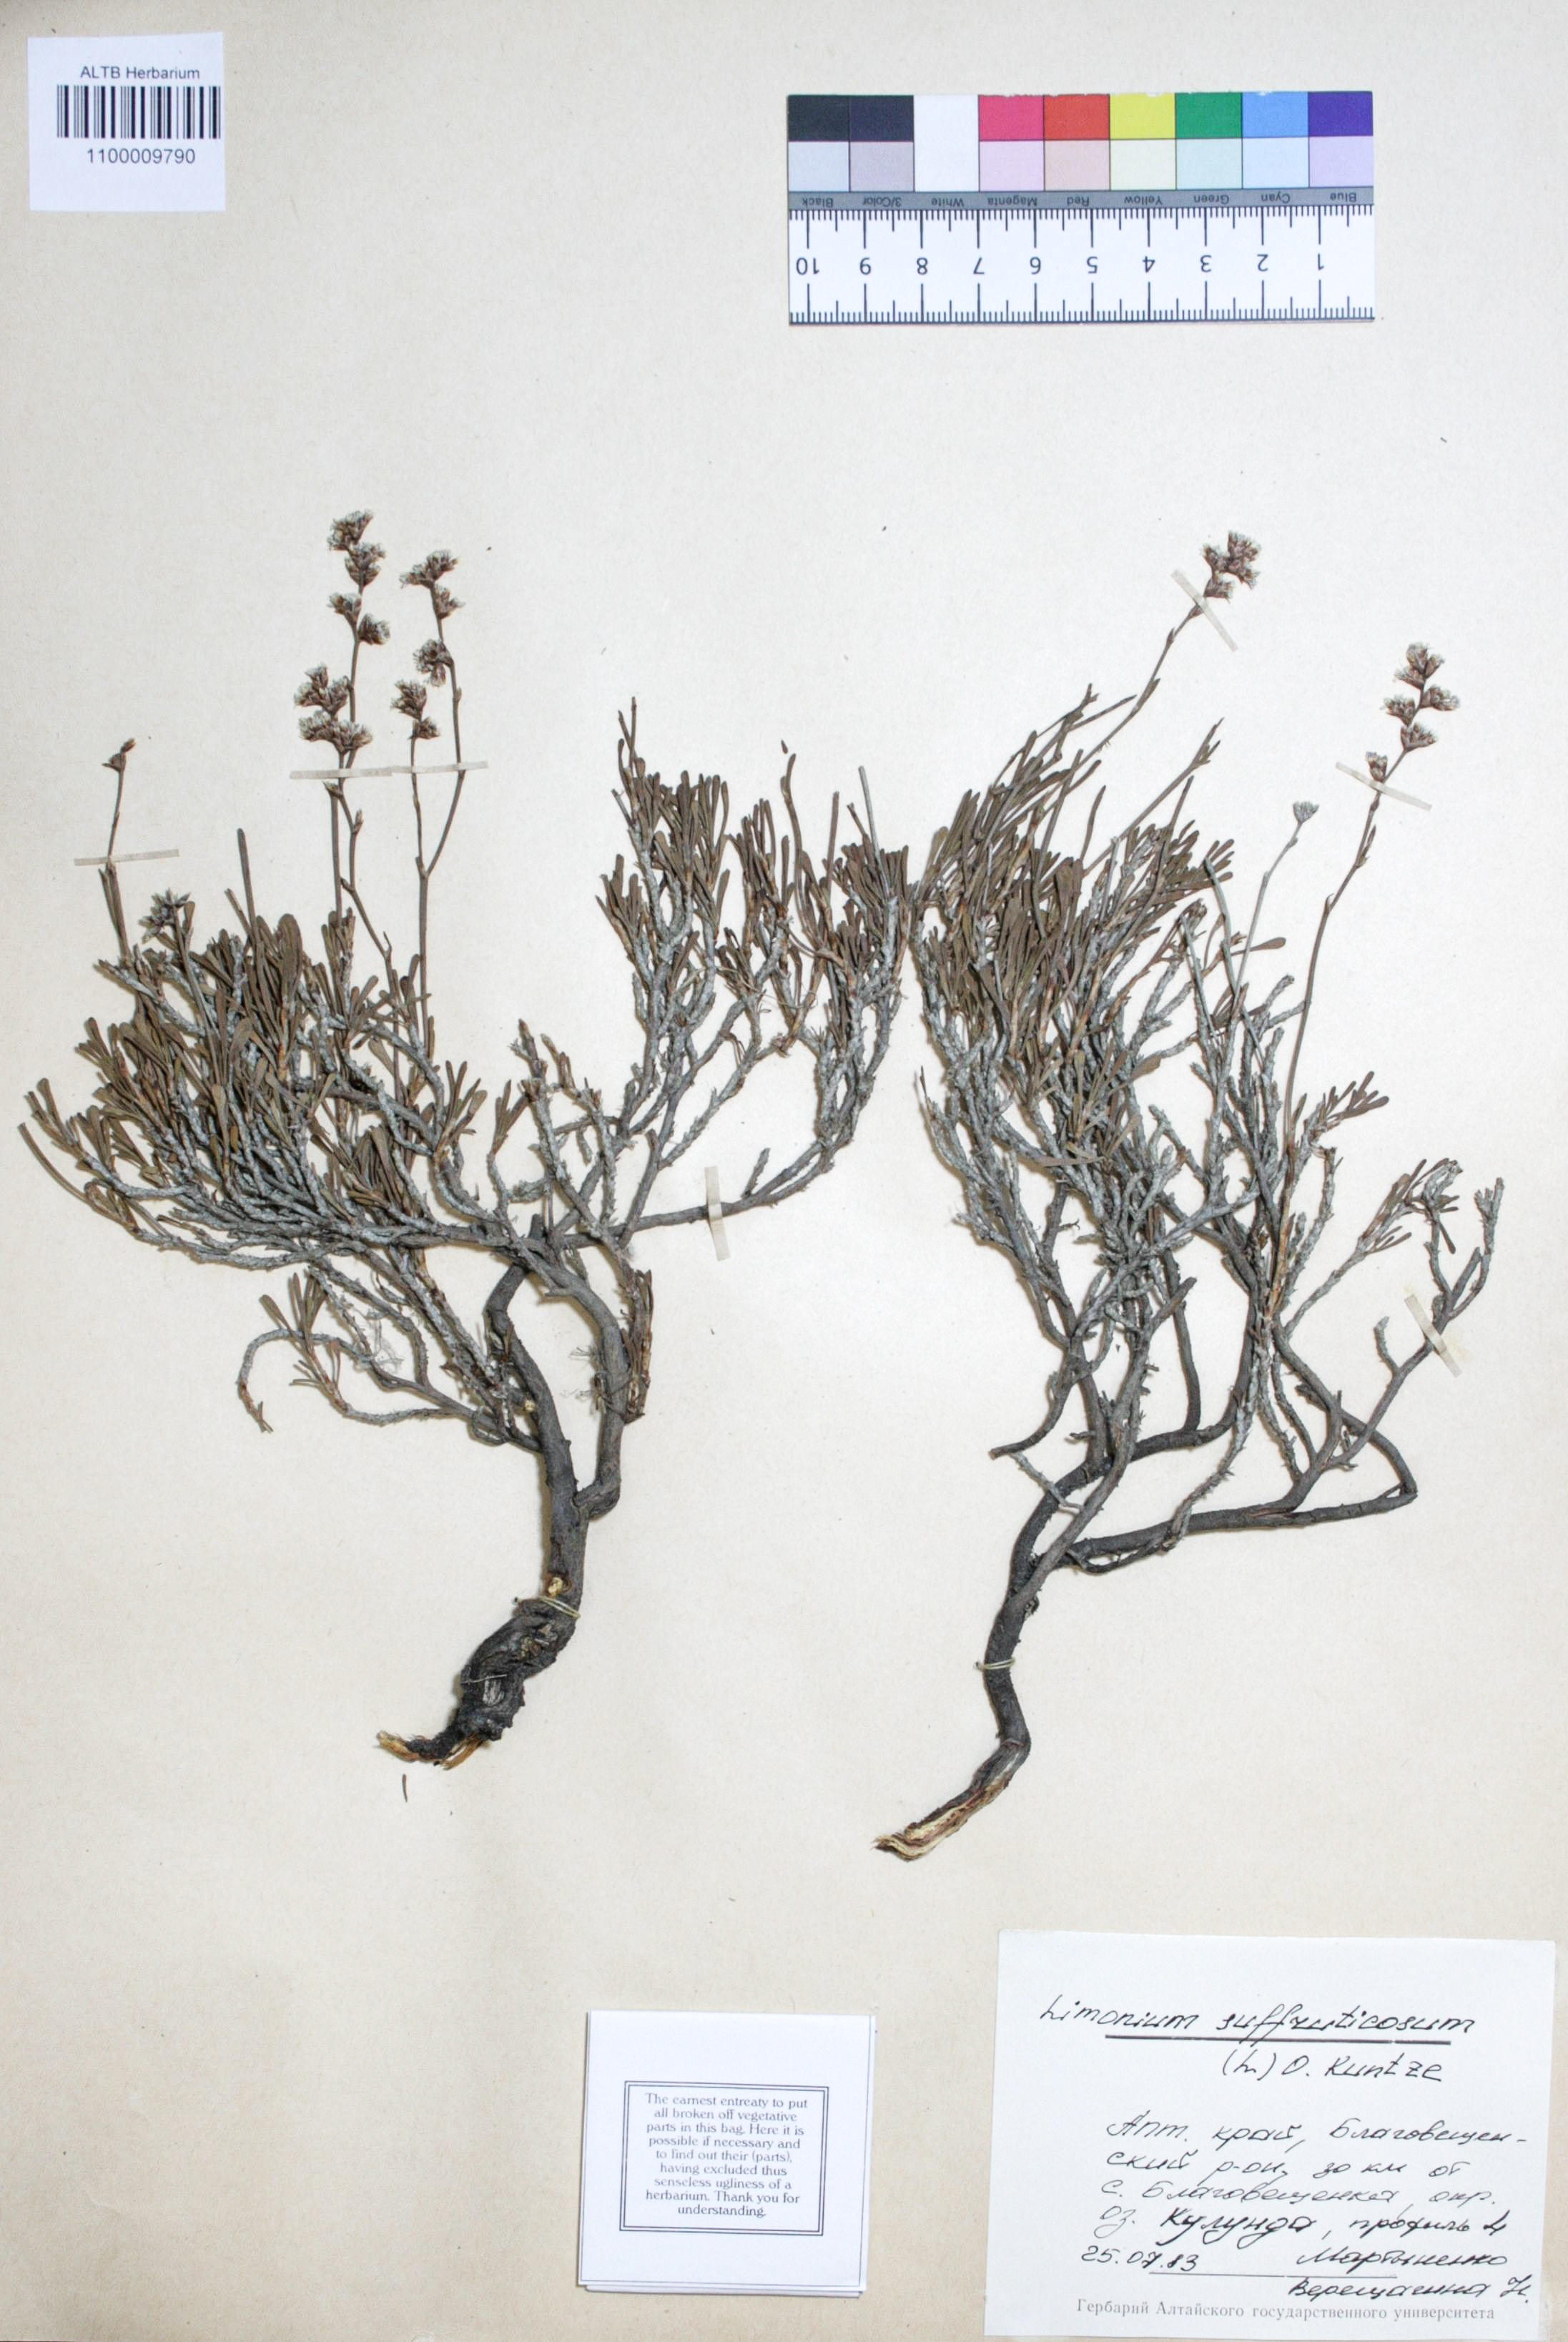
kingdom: Plantae
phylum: Tracheophyta
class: Magnoliopsida
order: Caryophyllales
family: Plumbaginaceae
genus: Limonium
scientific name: Limonium suffruticosum
